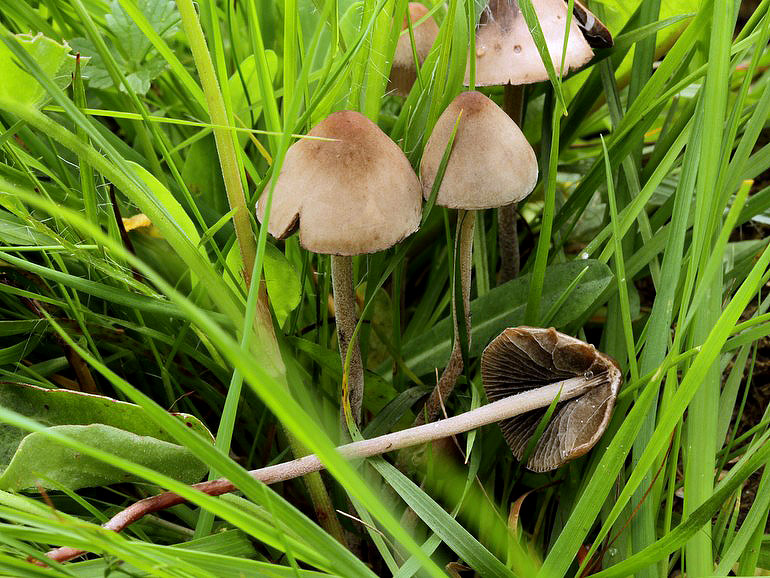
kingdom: Fungi
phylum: Basidiomycota
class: Agaricomycetes
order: Agaricales
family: Bolbitiaceae
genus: Panaeolus
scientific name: Panaeolus acuminatus
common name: høj glanshat
